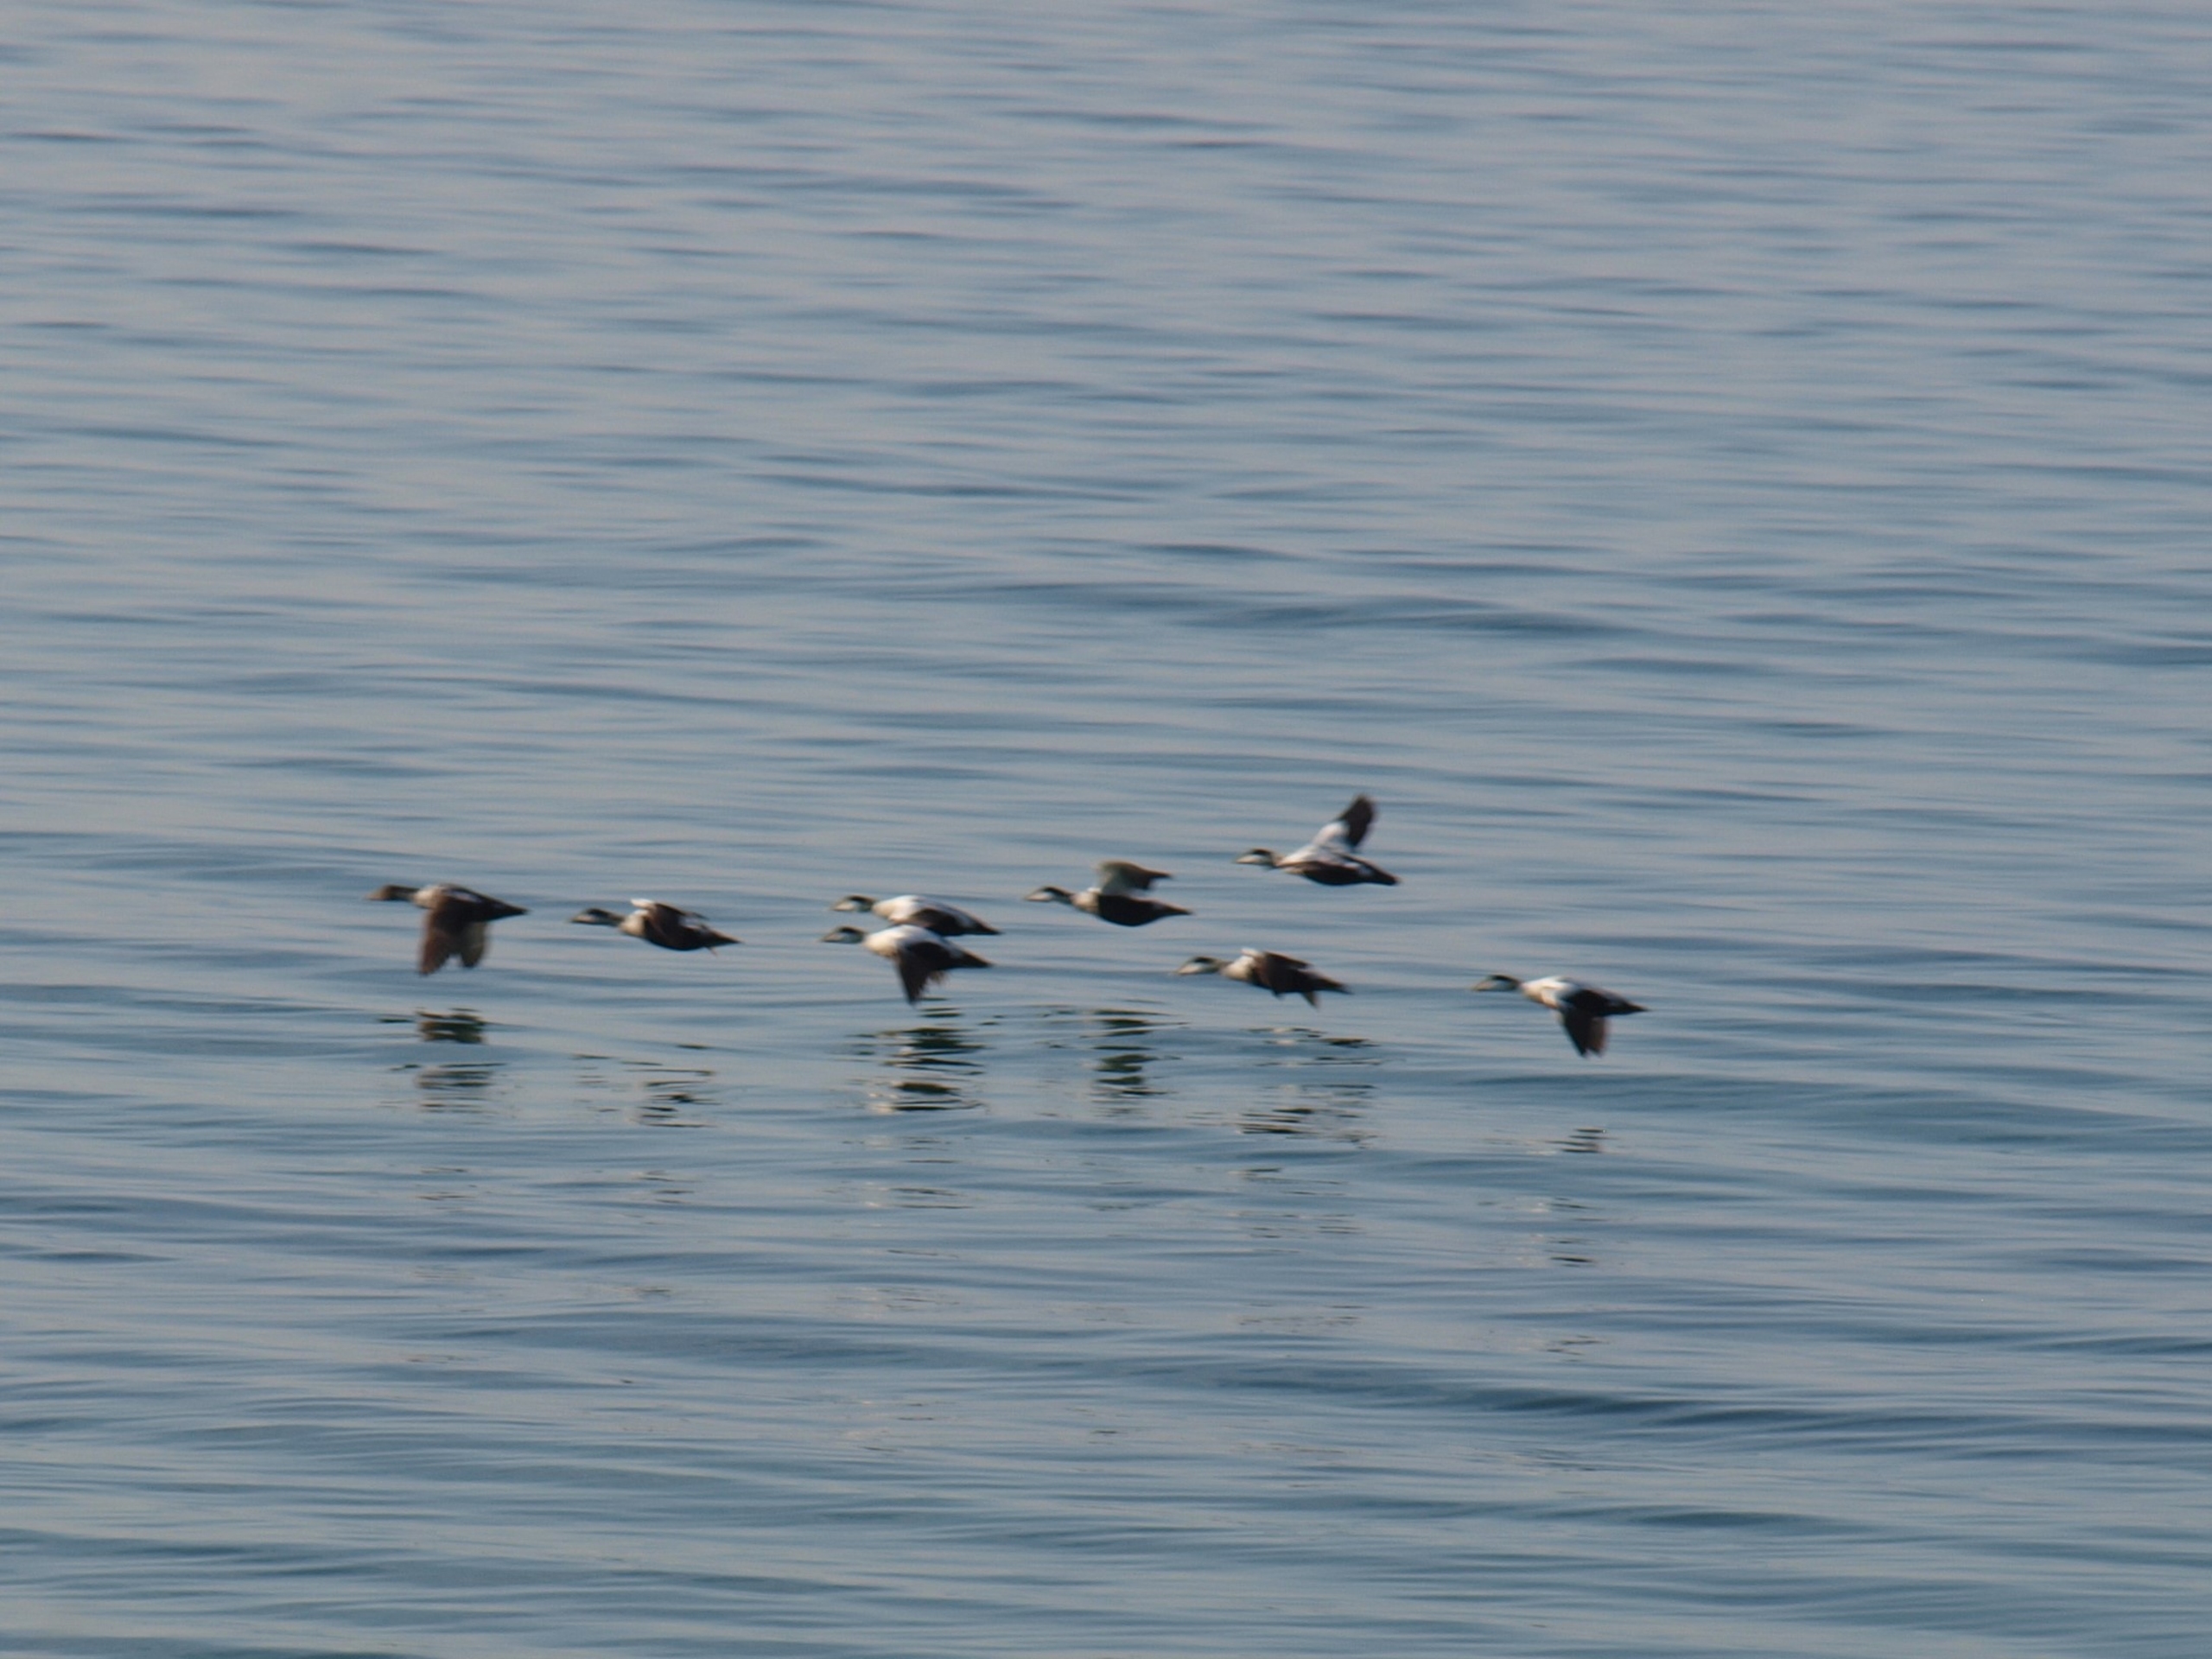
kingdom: Animalia
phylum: Chordata
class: Aves
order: Anseriformes
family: Anatidae
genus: Somateria
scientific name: Somateria mollissima
